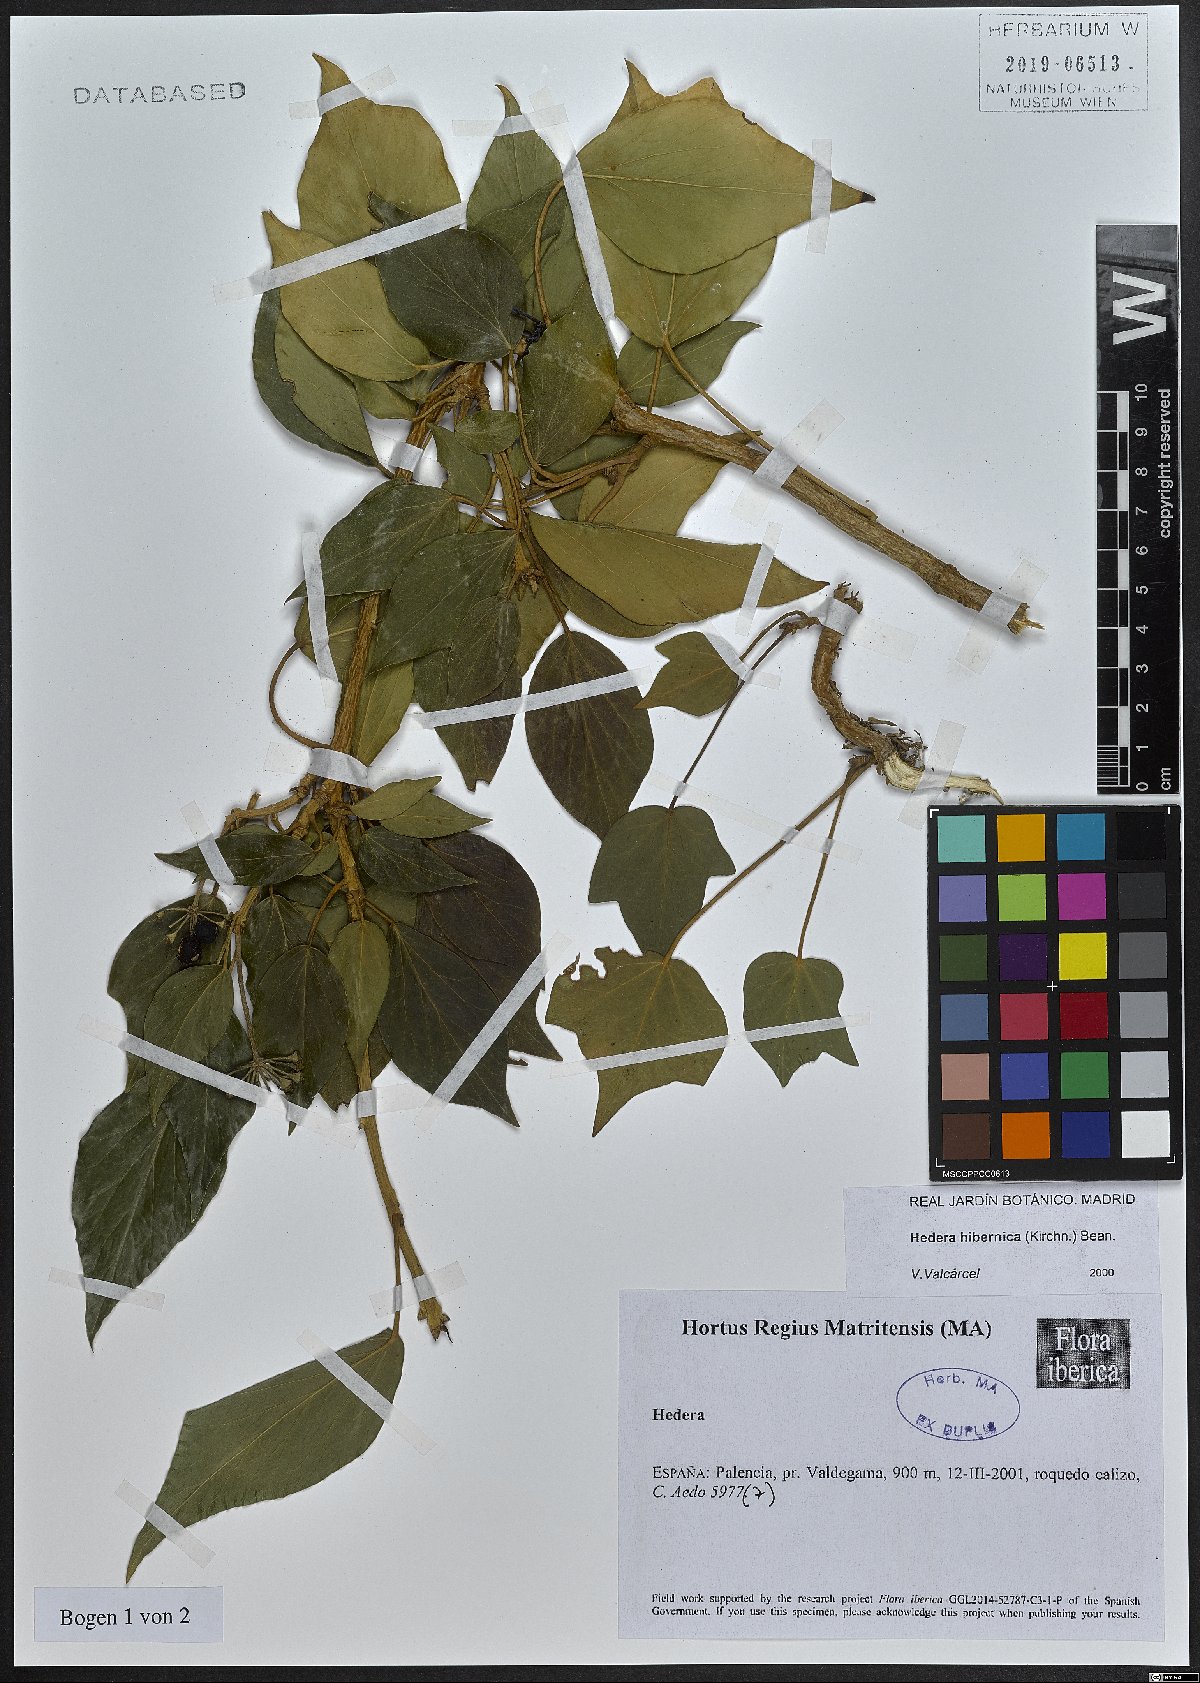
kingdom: Plantae
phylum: Tracheophyta
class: Magnoliopsida
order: Apiales
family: Araliaceae
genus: Hedera
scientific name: Hedera hibernica
